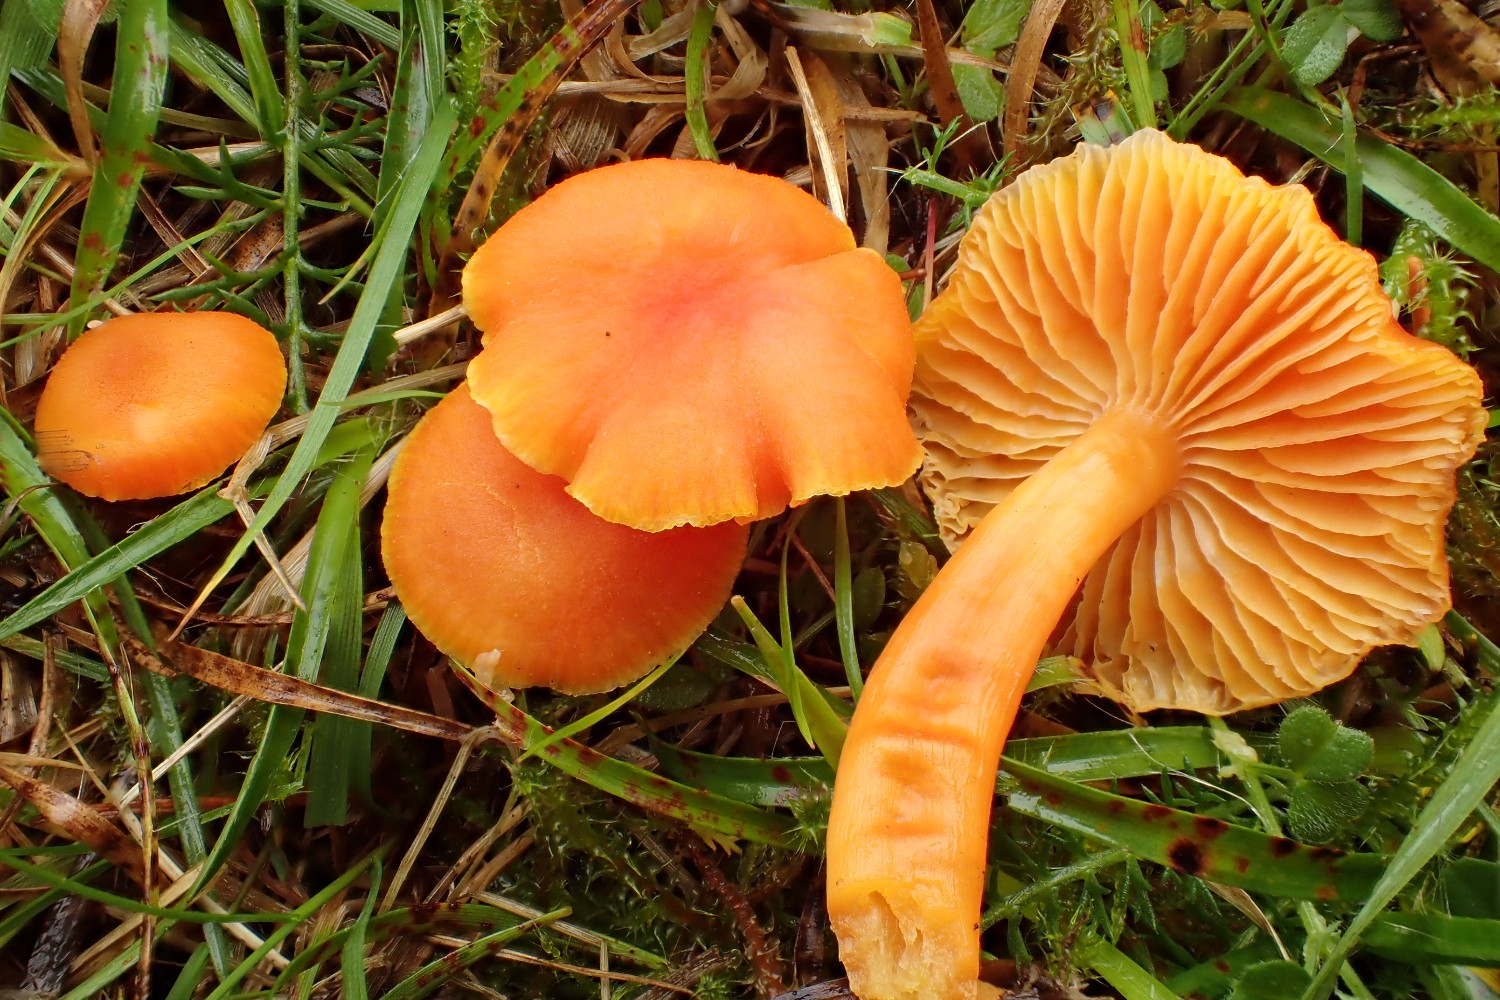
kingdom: Fungi
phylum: Basidiomycota
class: Agaricomycetes
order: Agaricales
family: Hygrophoraceae
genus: Hygrocybe
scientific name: Hygrocybe reidii
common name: honning-vokshat
